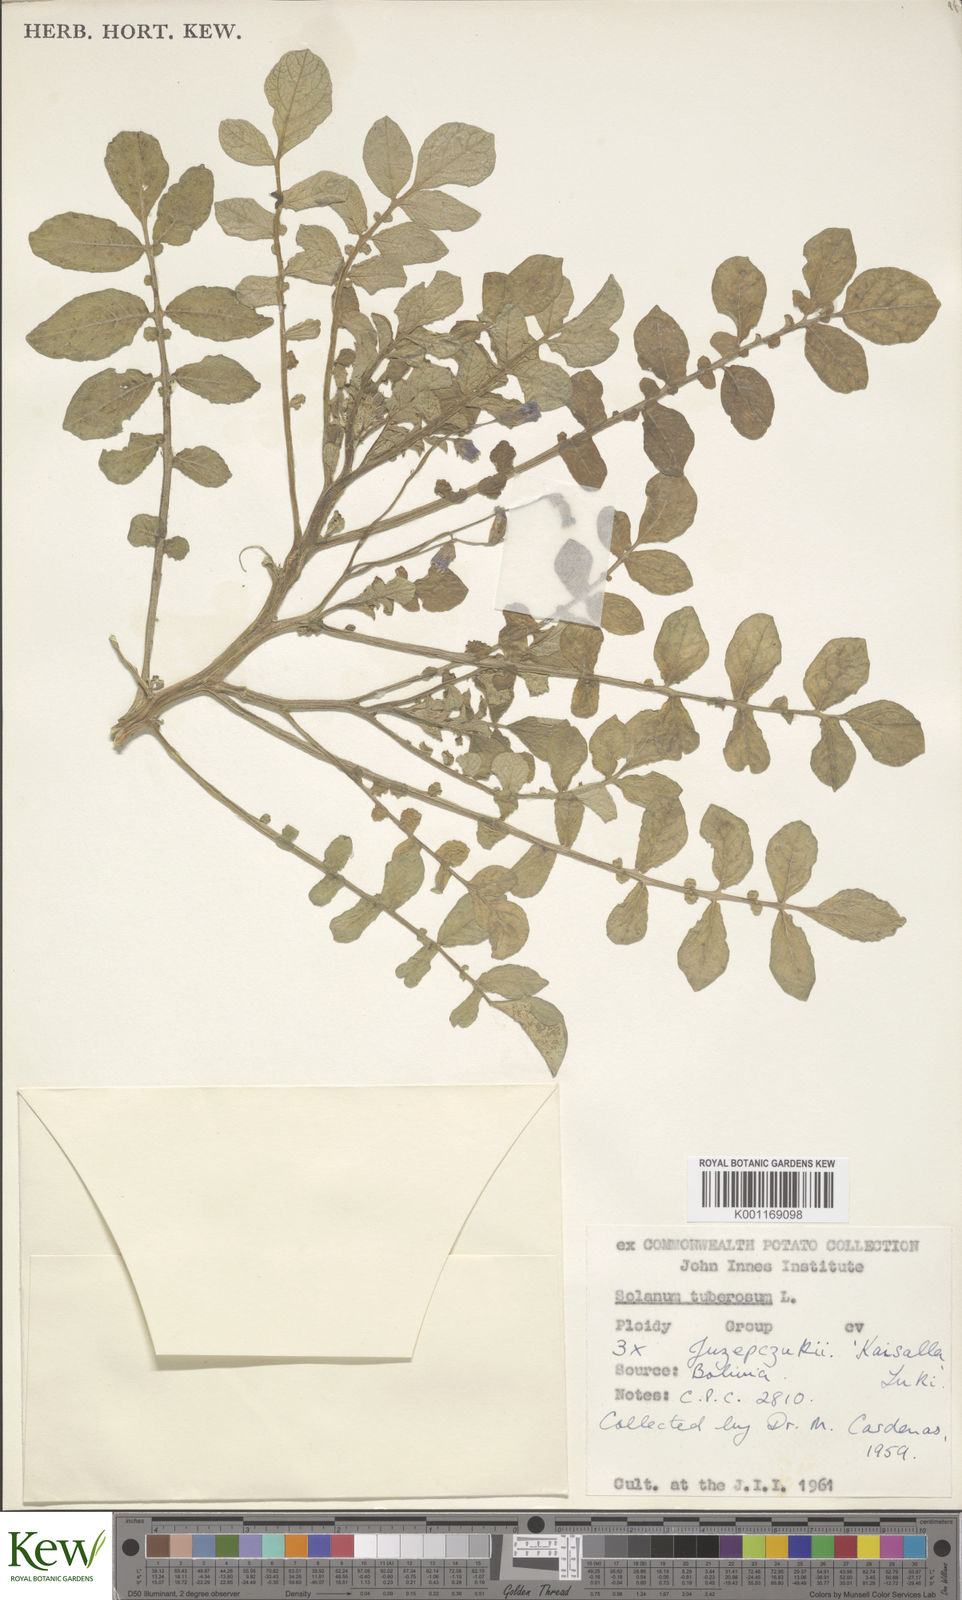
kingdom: Plantae
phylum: Tracheophyta
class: Magnoliopsida
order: Solanales
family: Solanaceae
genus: Solanum
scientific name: Solanum juzepczukii
